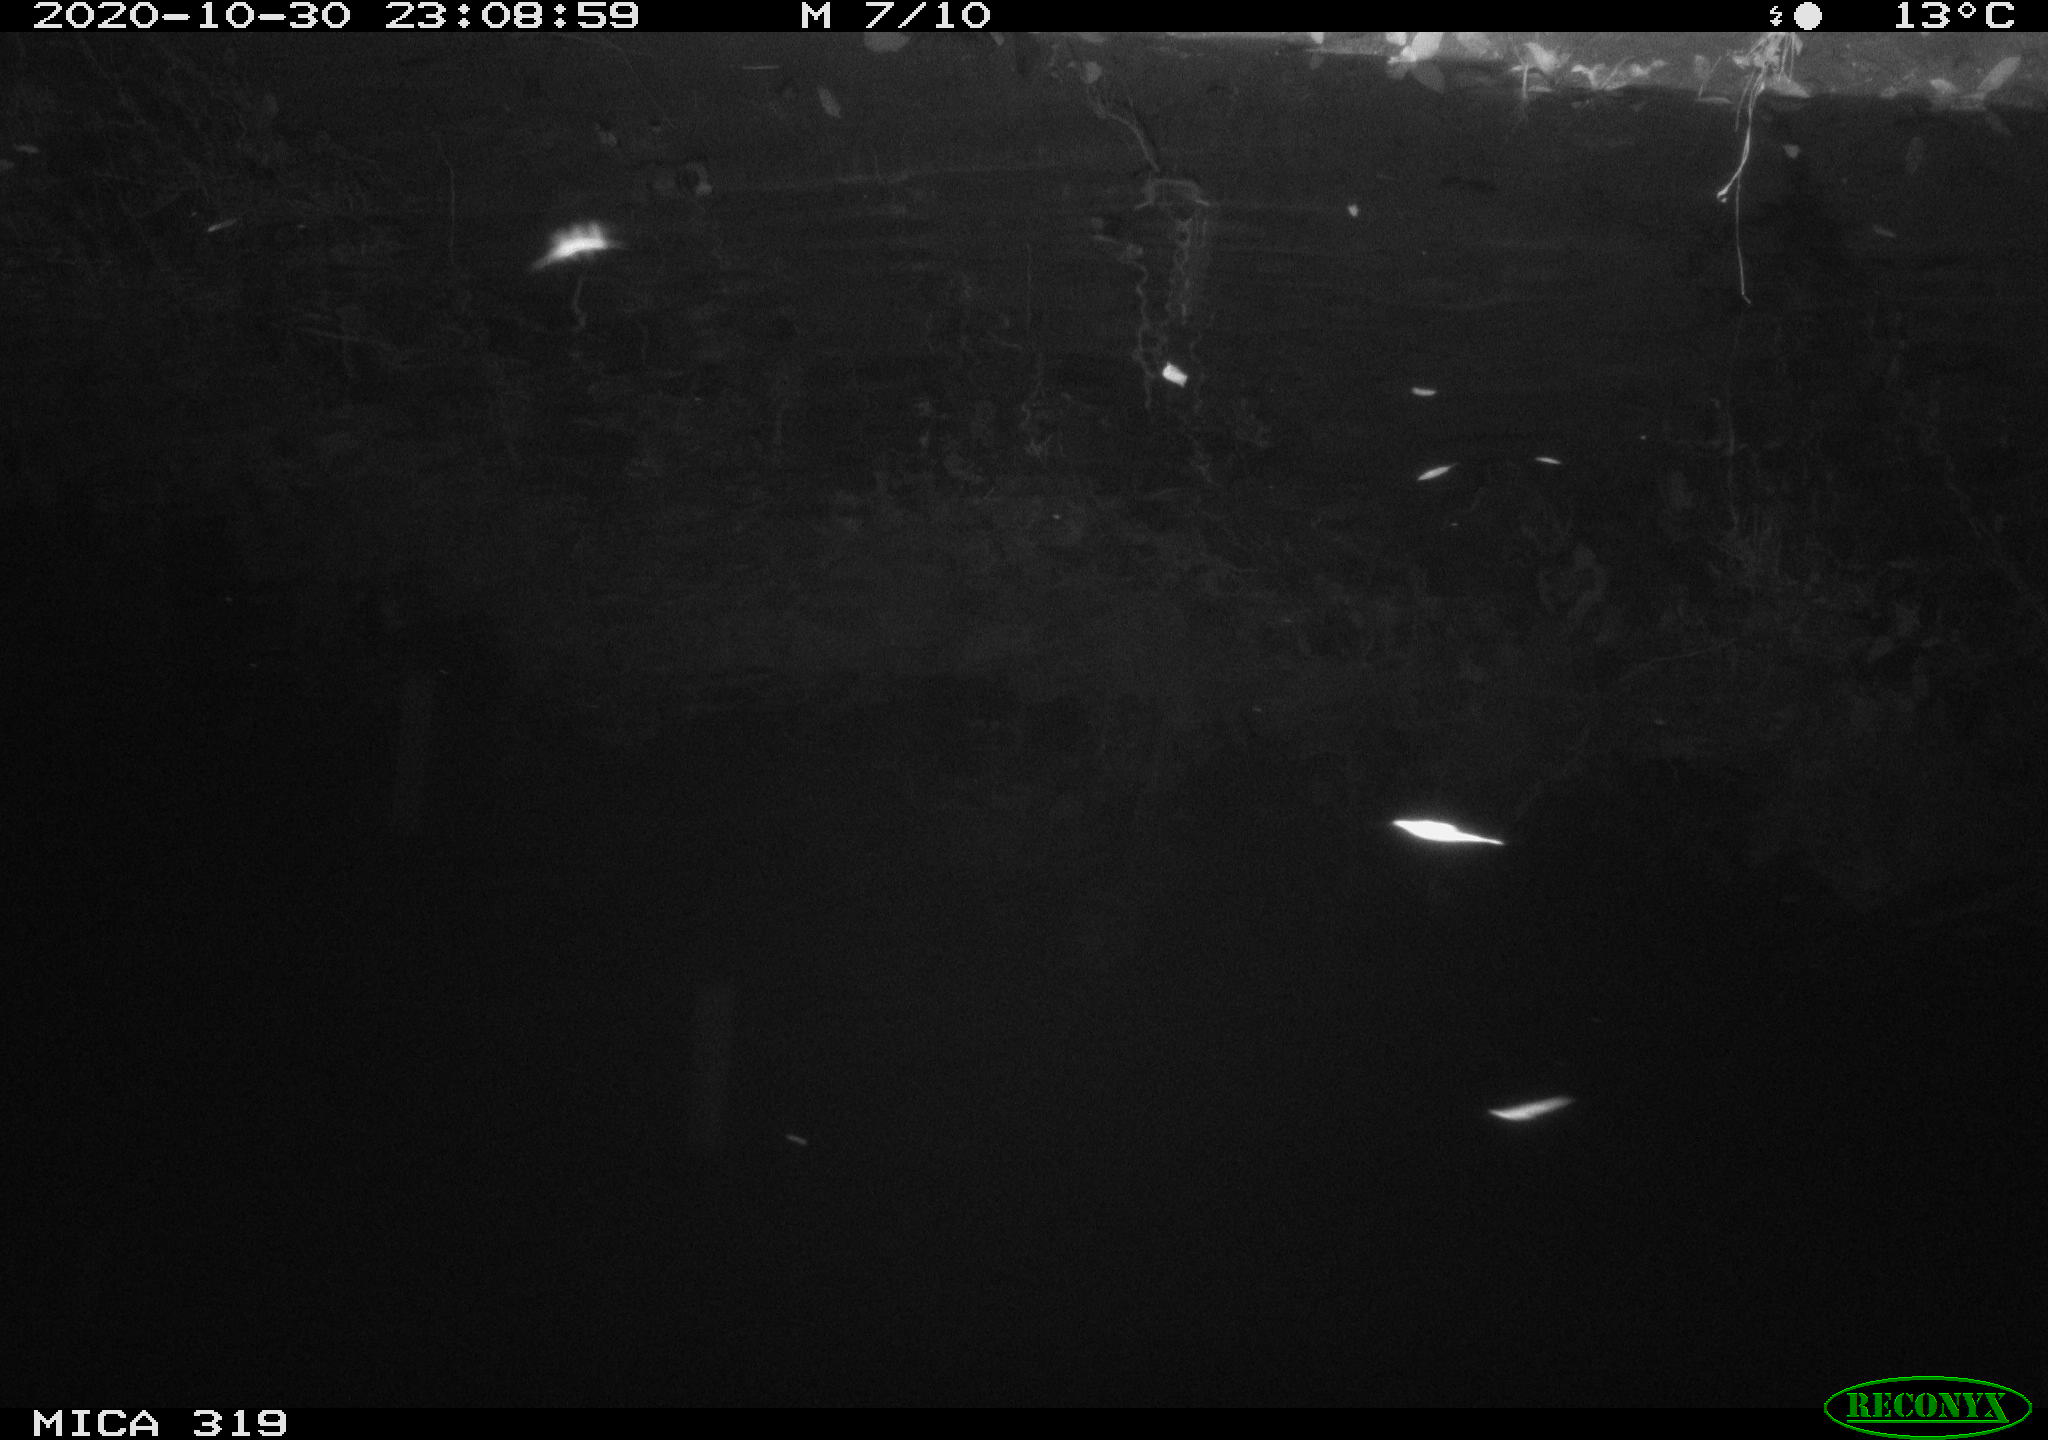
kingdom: Animalia
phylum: Chordata
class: Mammalia
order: Rodentia
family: Muridae
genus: Rattus
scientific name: Rattus norvegicus
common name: Brown rat
